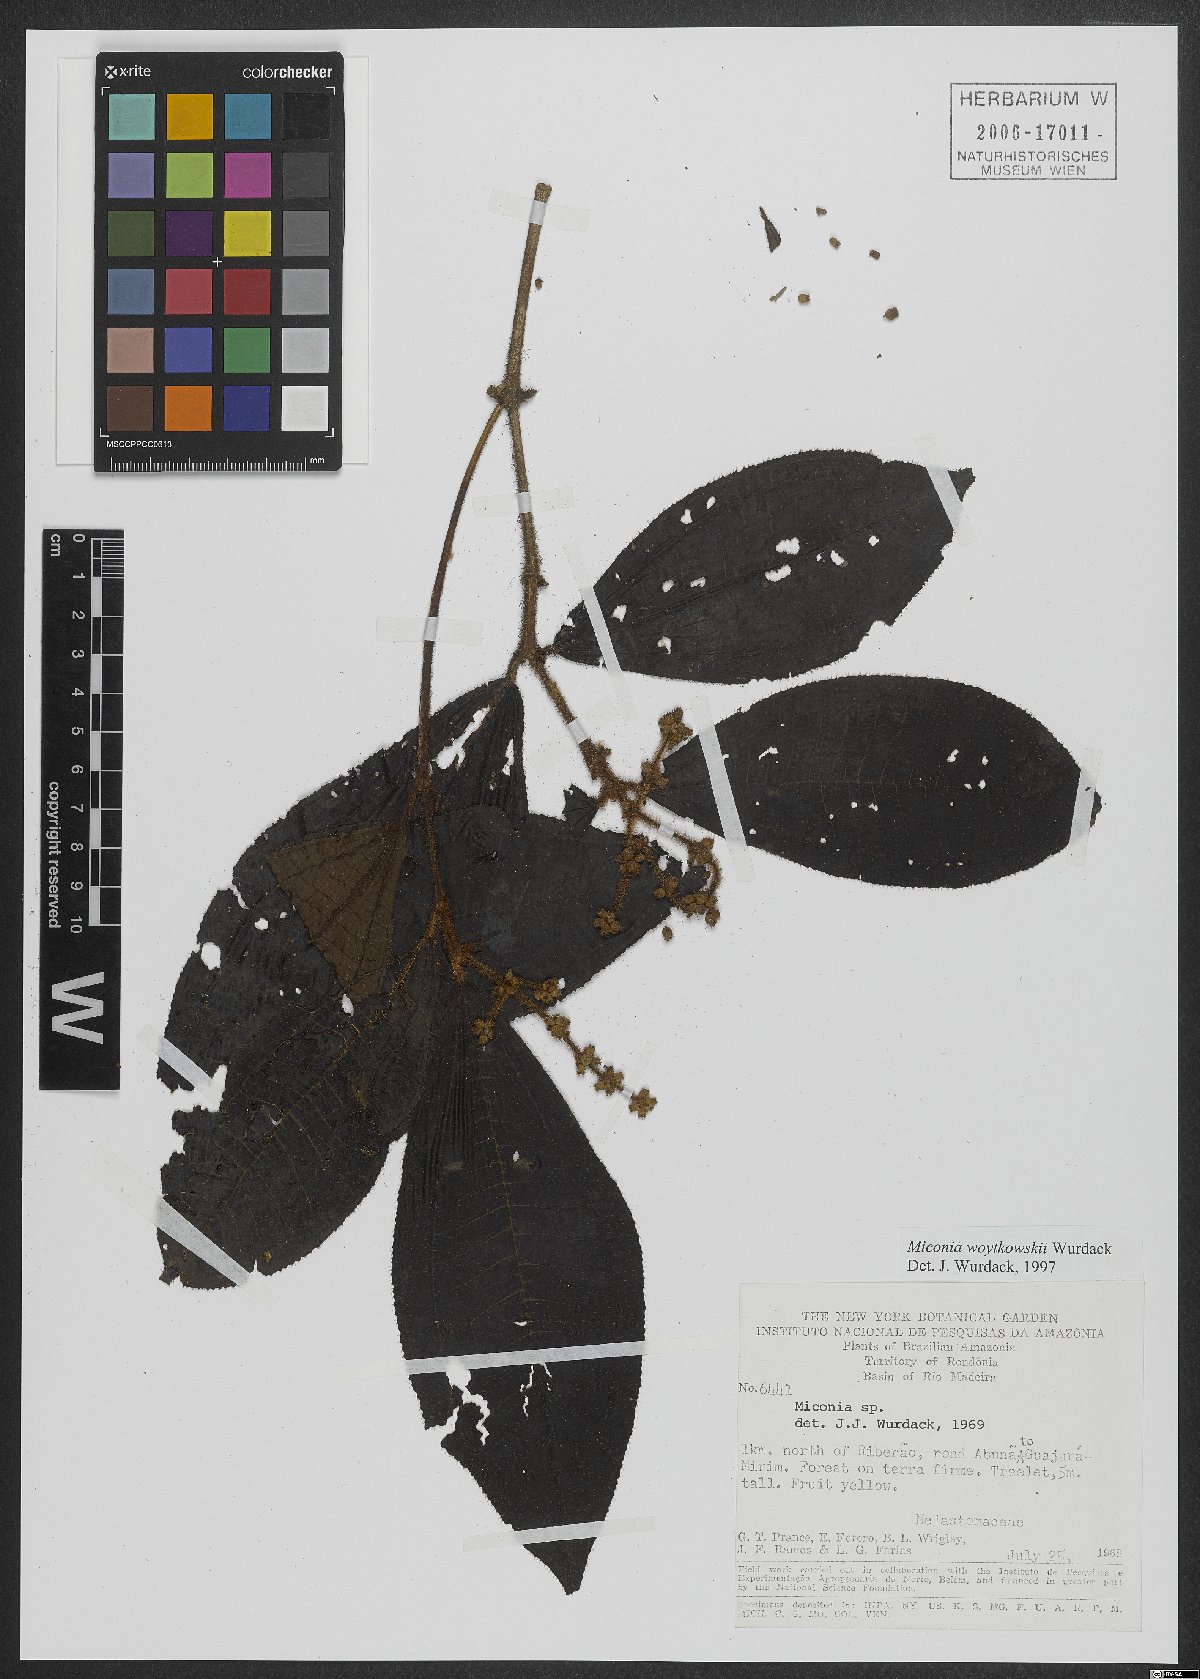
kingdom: Plantae
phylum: Tracheophyta
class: Magnoliopsida
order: Myrtales
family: Melastomataceae
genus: Miconia
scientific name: Miconia woytkowskii
